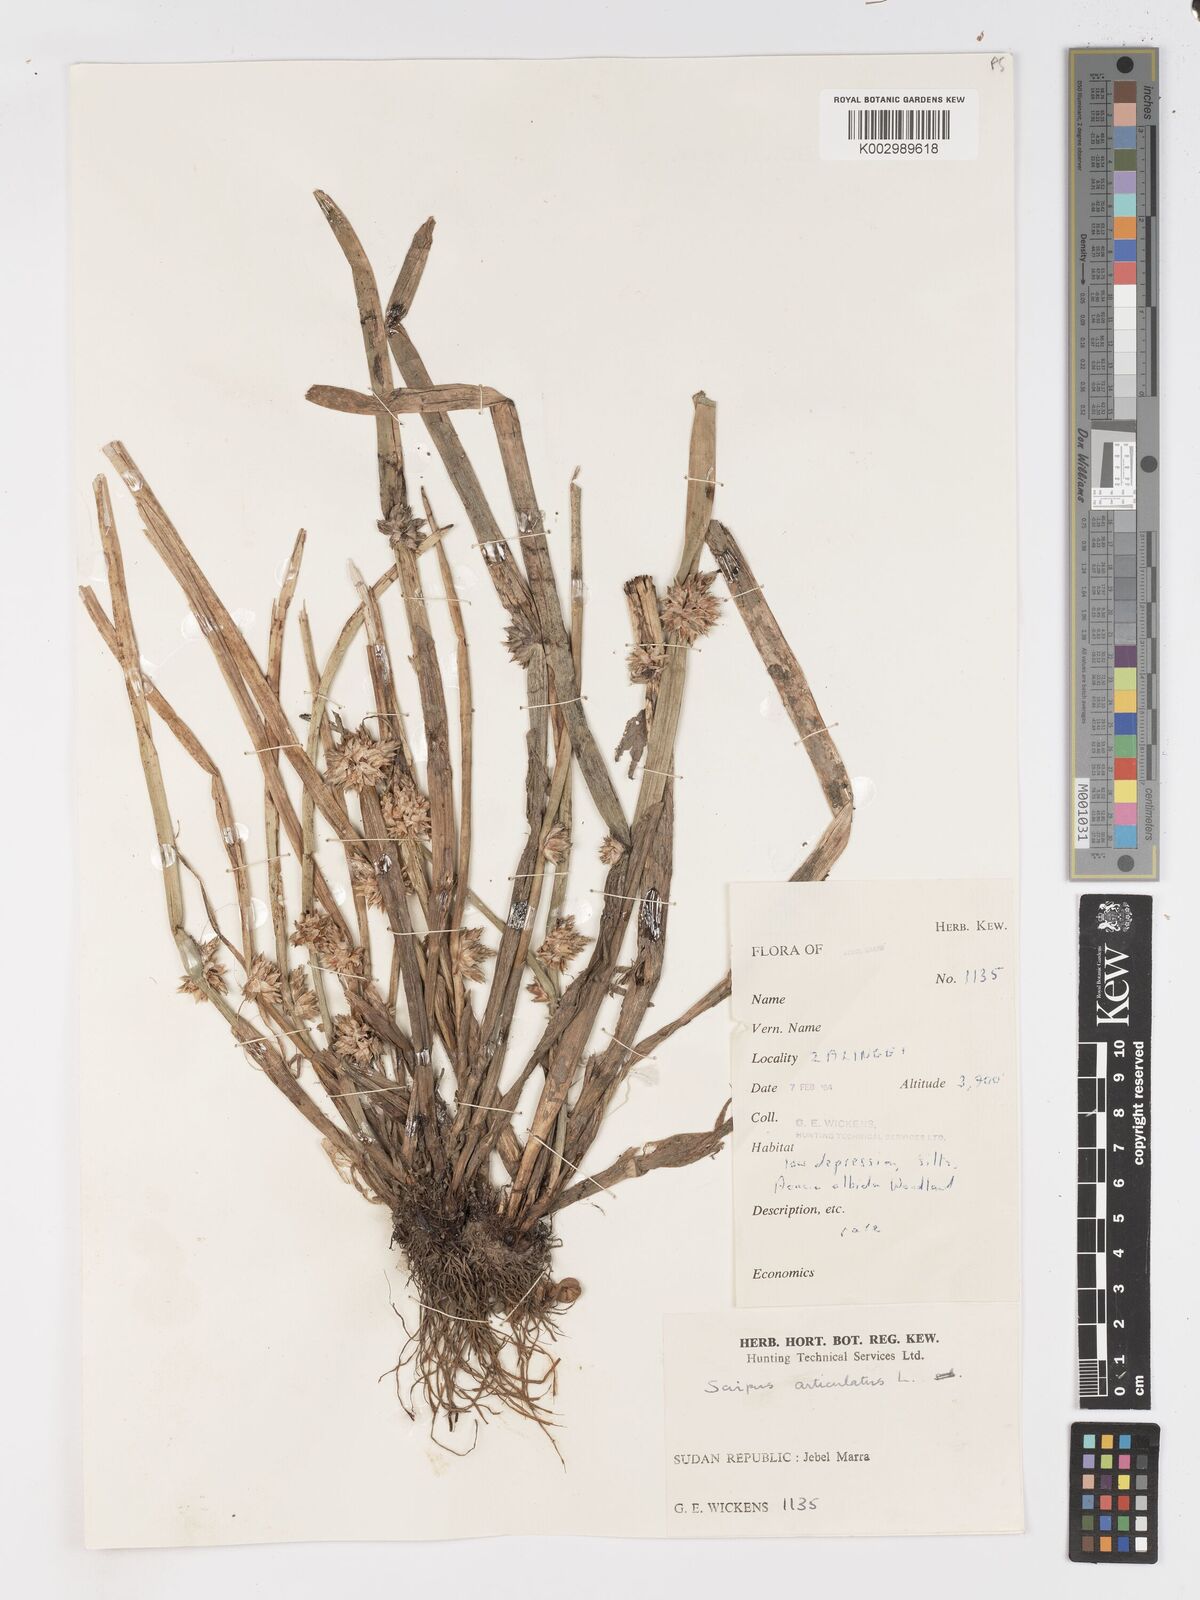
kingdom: Plantae
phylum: Tracheophyta
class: Liliopsida
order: Poales
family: Cyperaceae
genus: Schoenoplectiella
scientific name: Schoenoplectiella articulata
